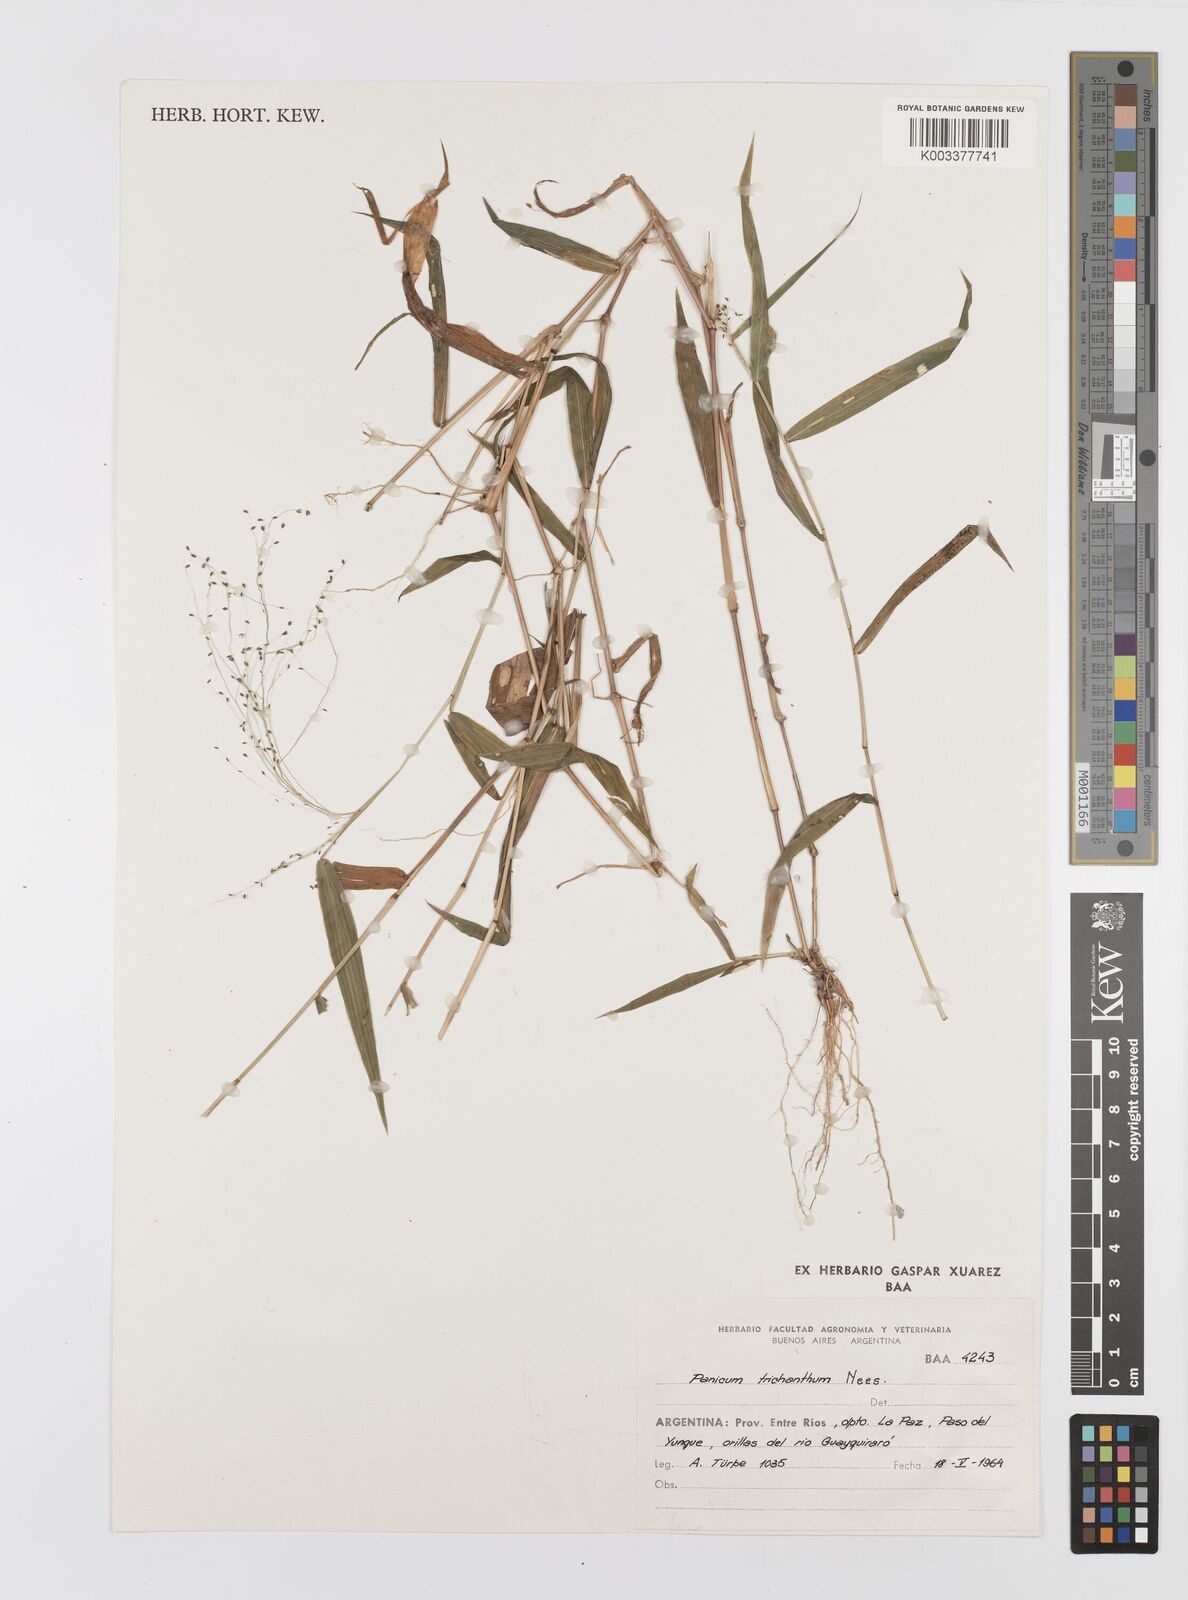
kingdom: Plantae
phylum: Tracheophyta
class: Liliopsida
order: Poales
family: Poaceae
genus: Panicum
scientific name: Panicum trichanthum
